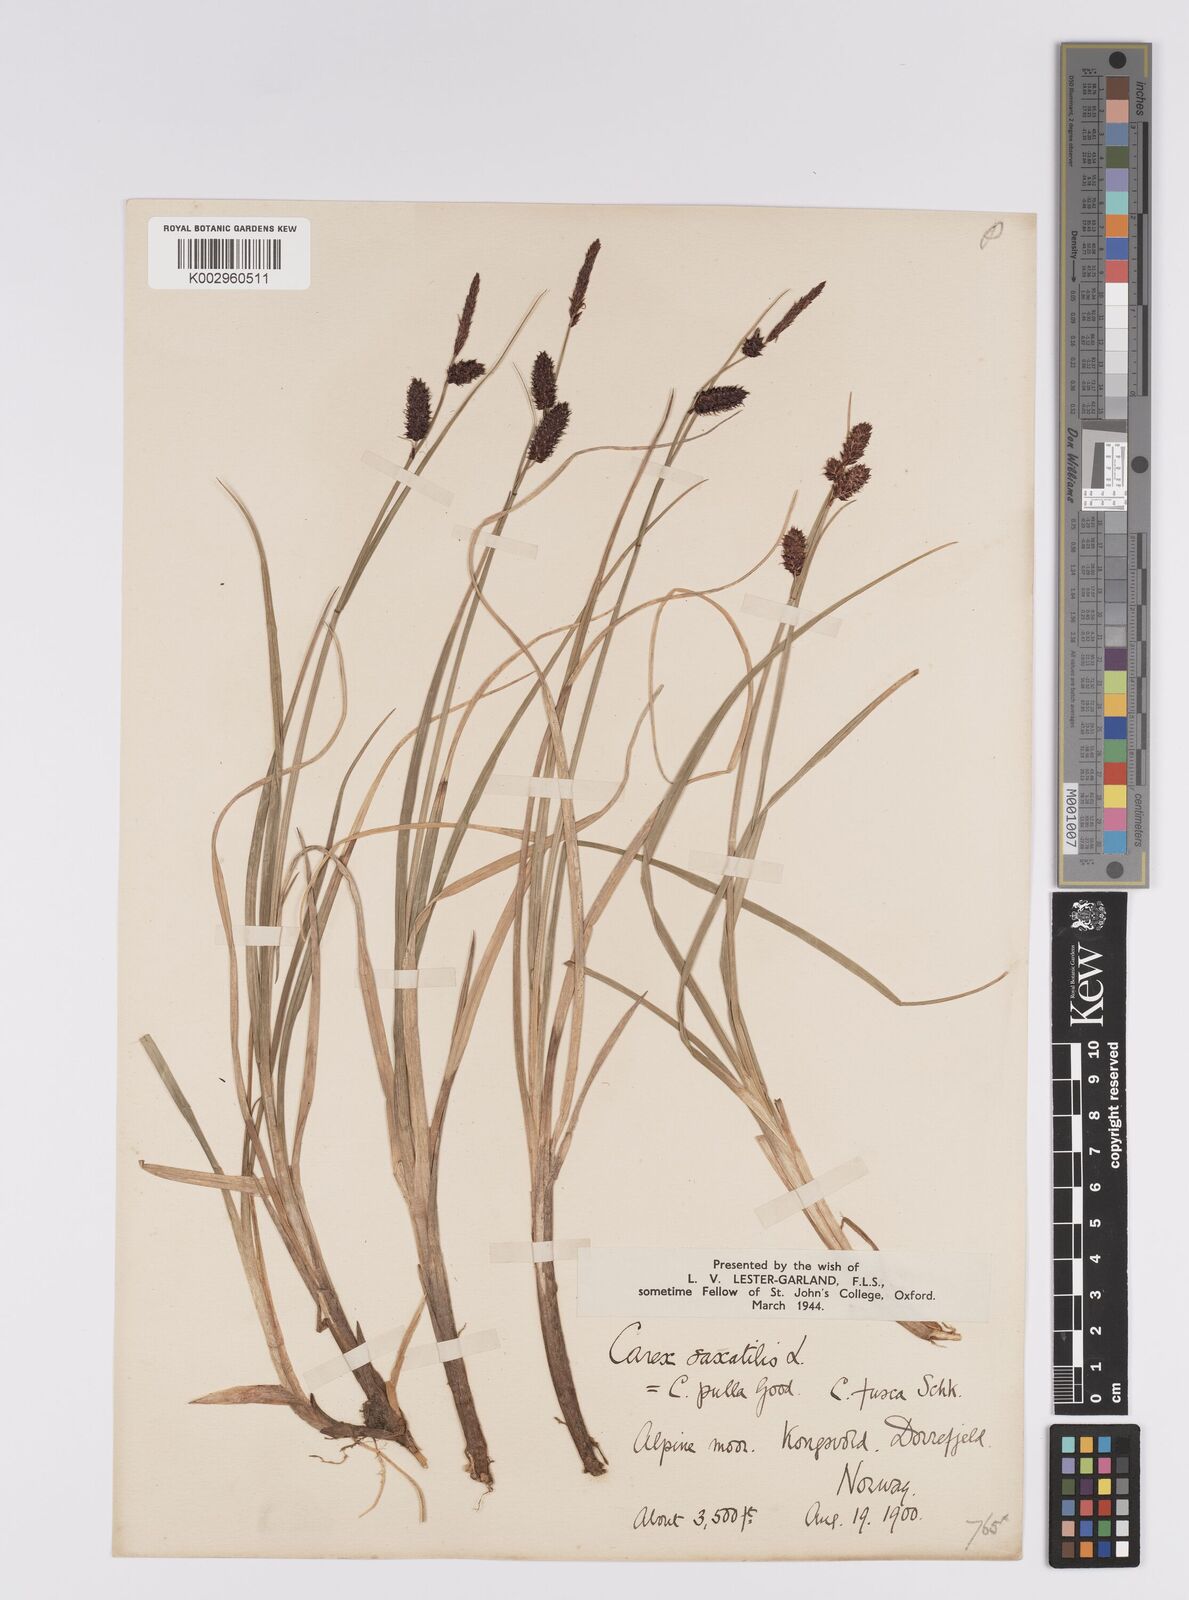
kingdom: Plantae
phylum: Tracheophyta
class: Liliopsida
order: Poales
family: Cyperaceae
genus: Carex
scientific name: Carex saxatilis
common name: Russet sedge
